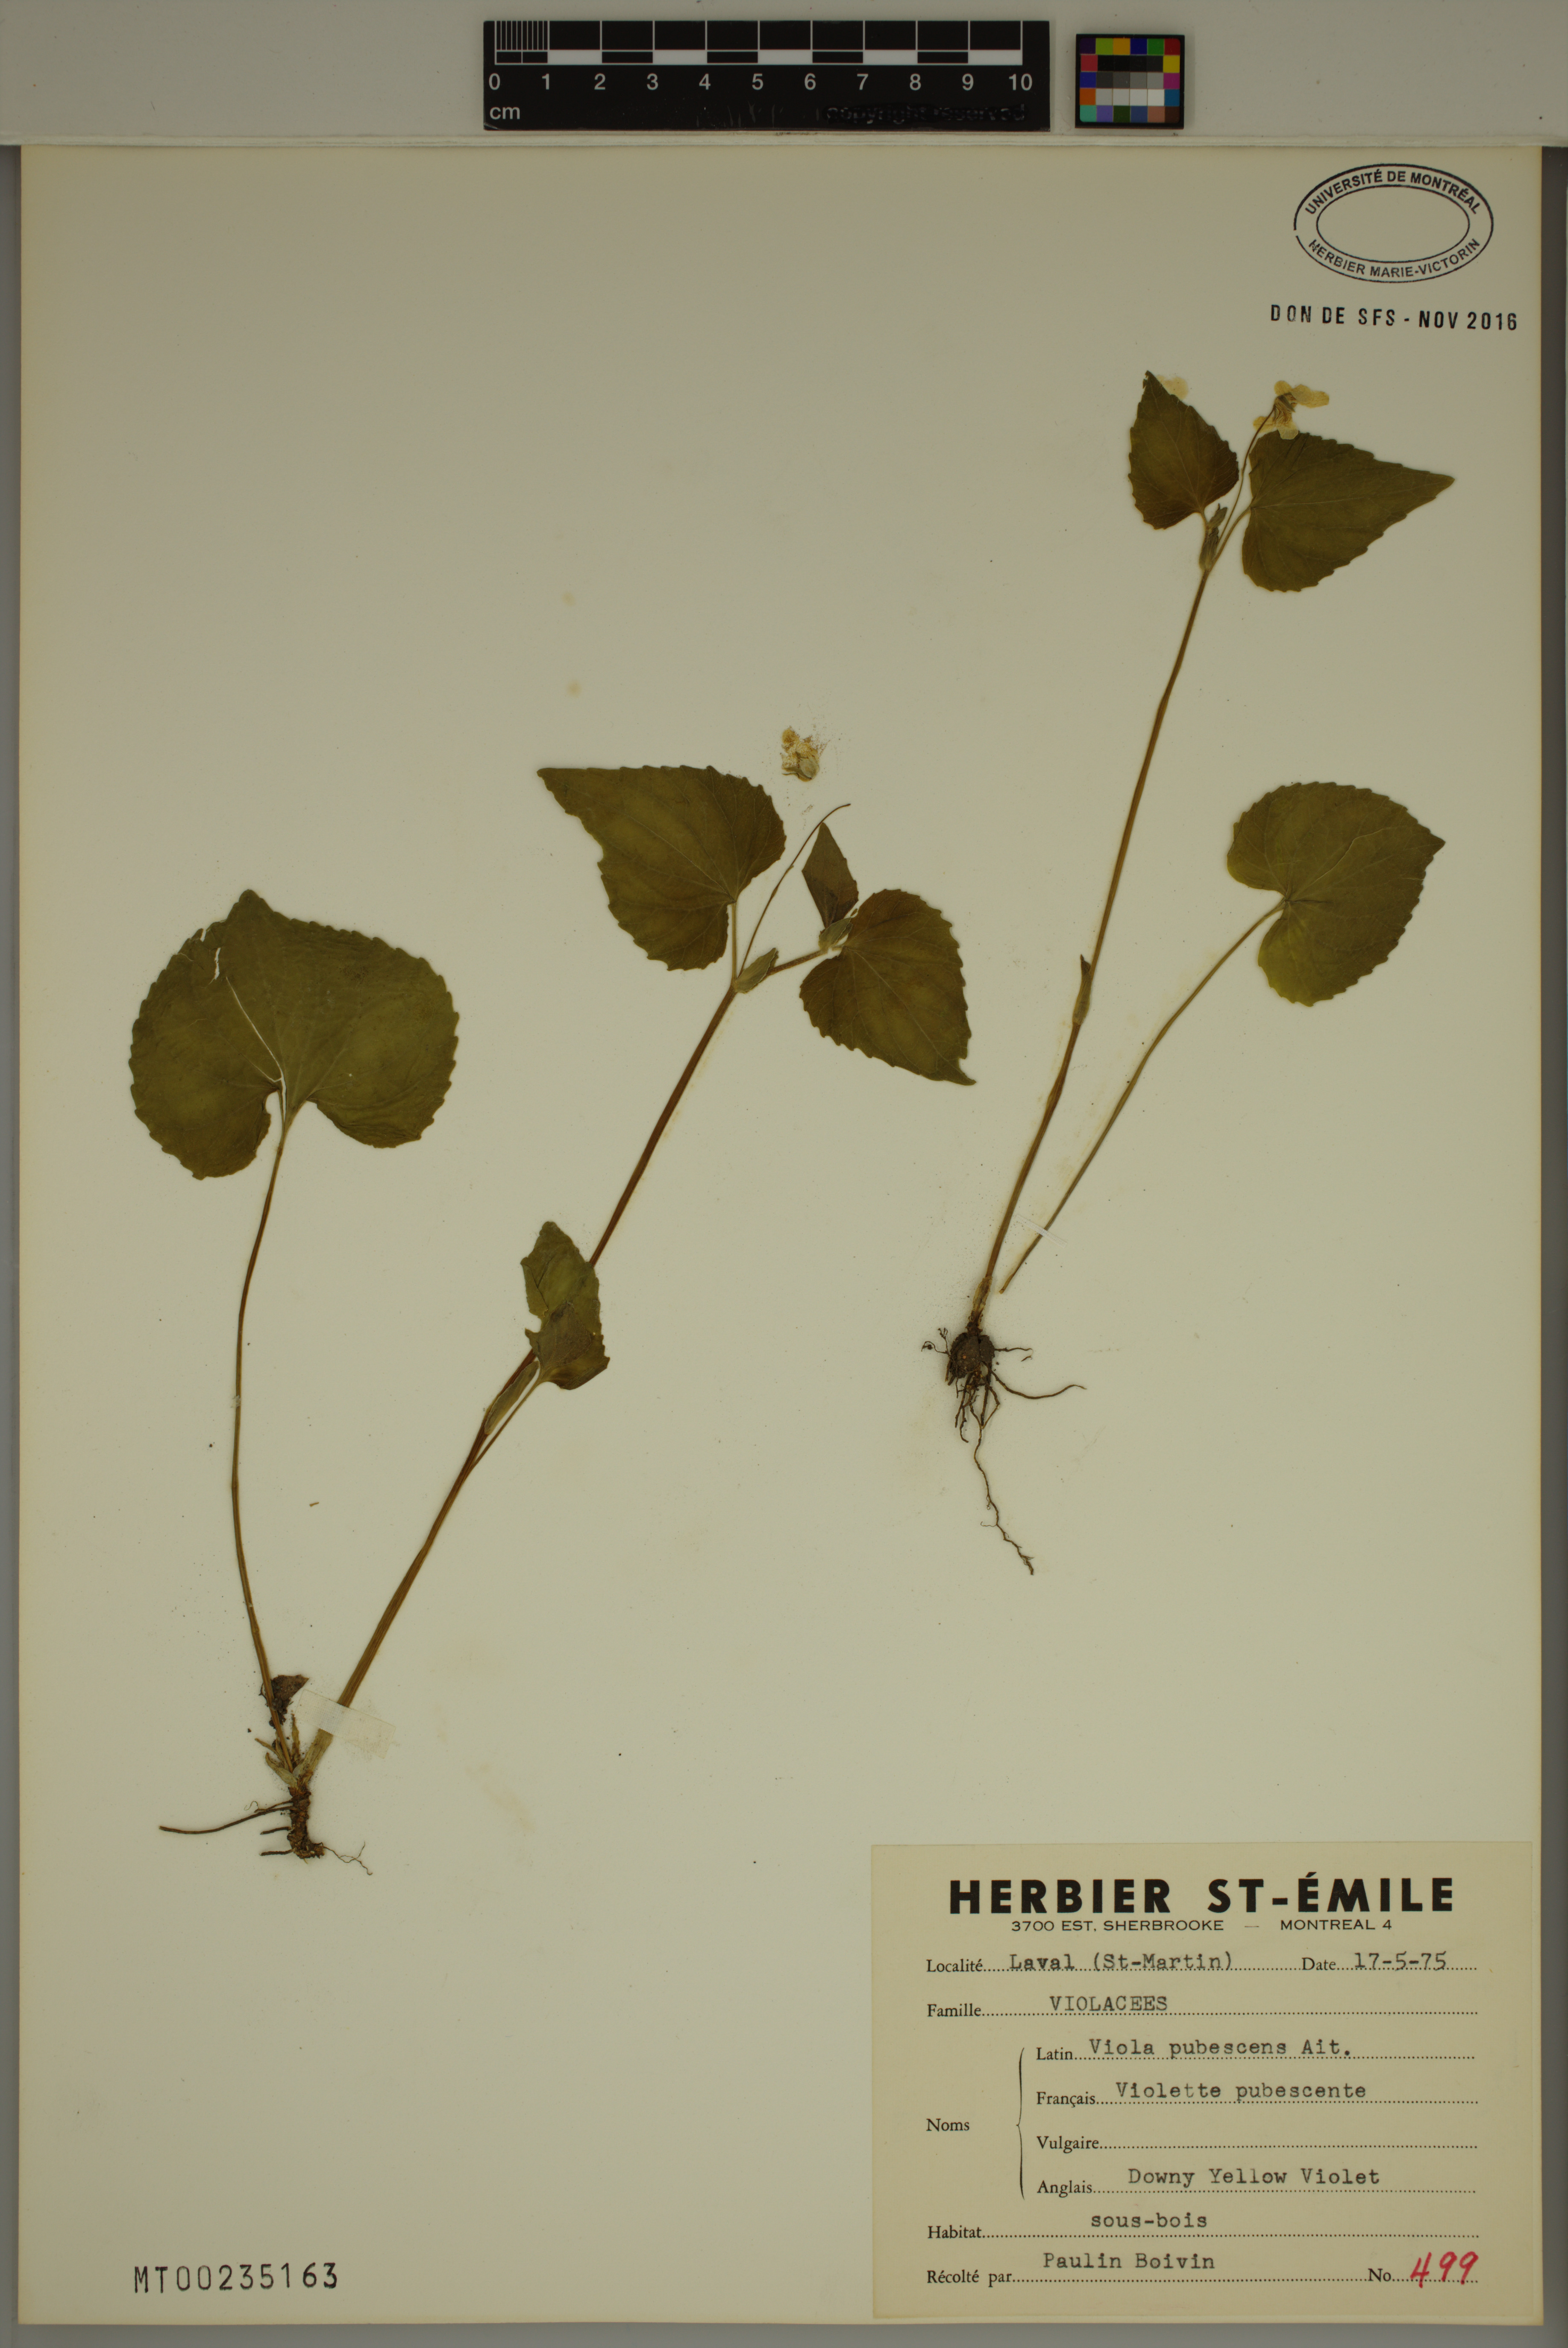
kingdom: Plantae
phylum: Tracheophyta
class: Magnoliopsida
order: Malpighiales
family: Violaceae
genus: Viola
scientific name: Viola pubescens
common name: Yellow forest violet
